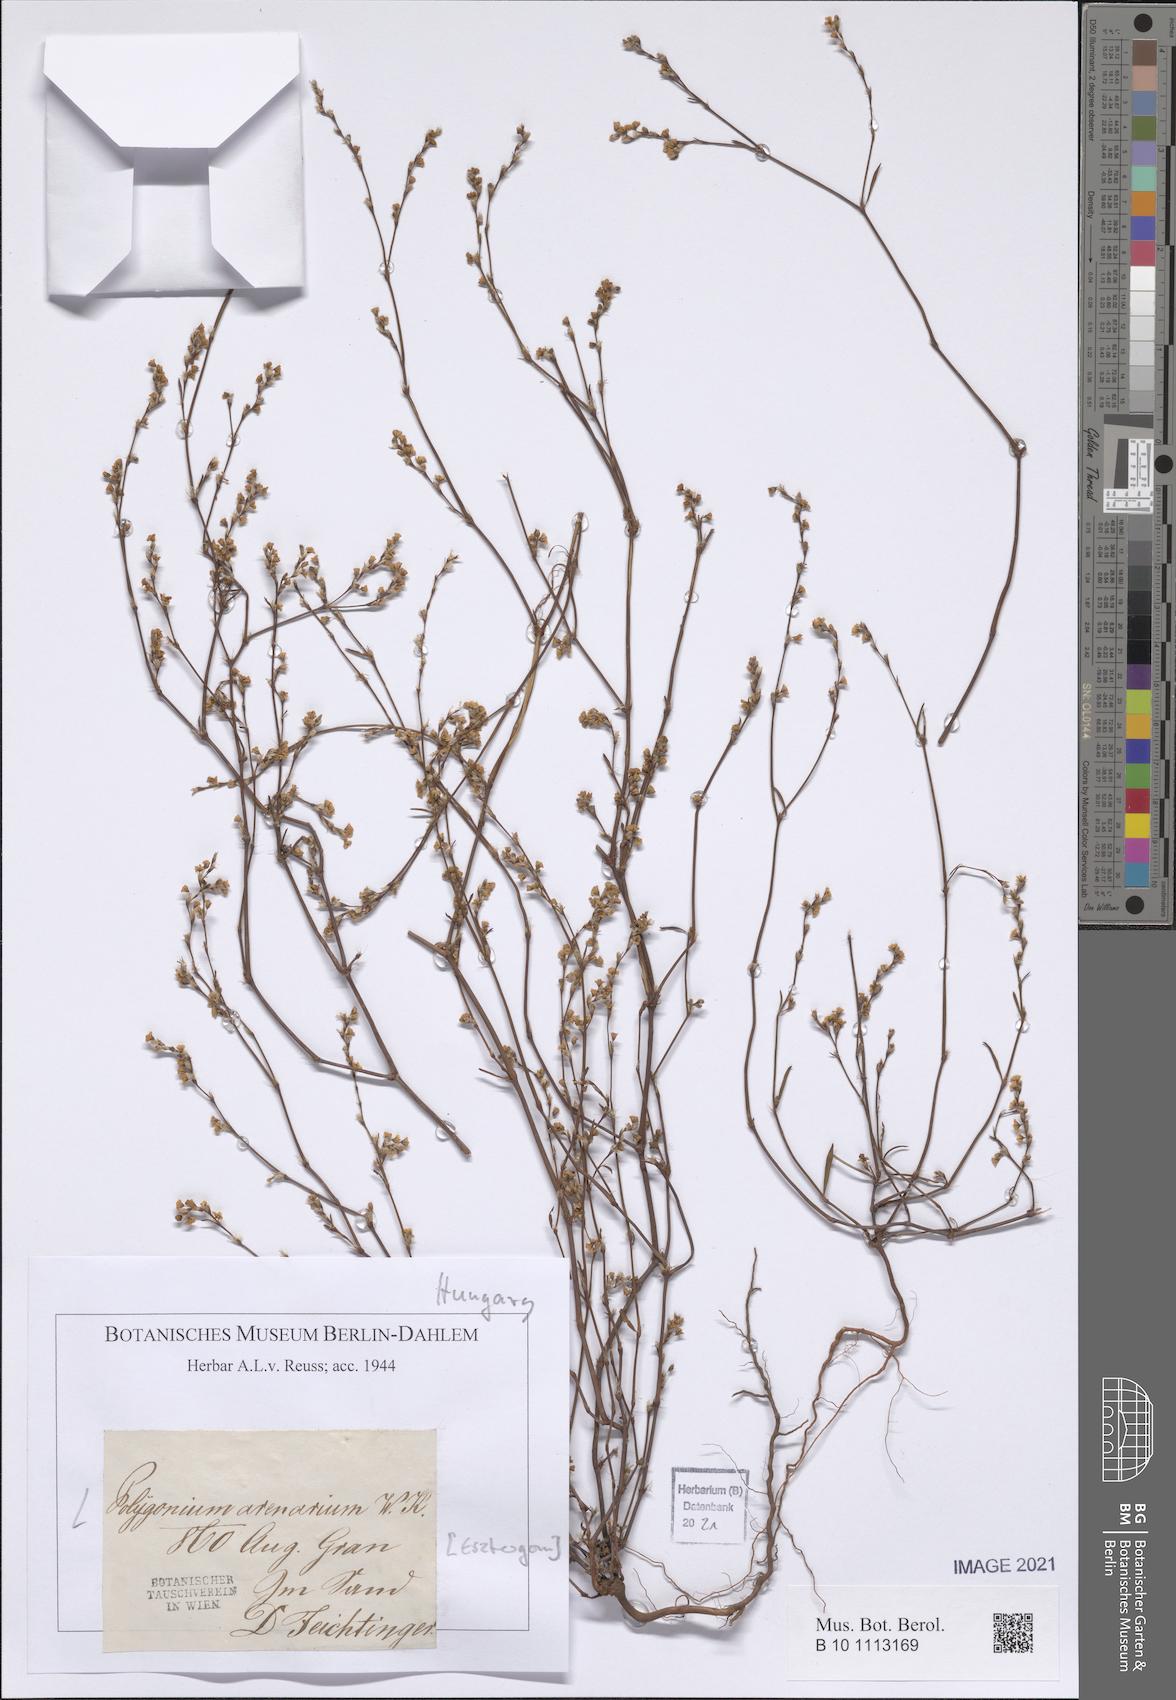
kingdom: Plantae
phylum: Tracheophyta
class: Magnoliopsida
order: Caryophyllales
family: Polygonaceae
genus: Polygonum
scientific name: Polygonum arenarium
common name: Lesser red-knotgrass
